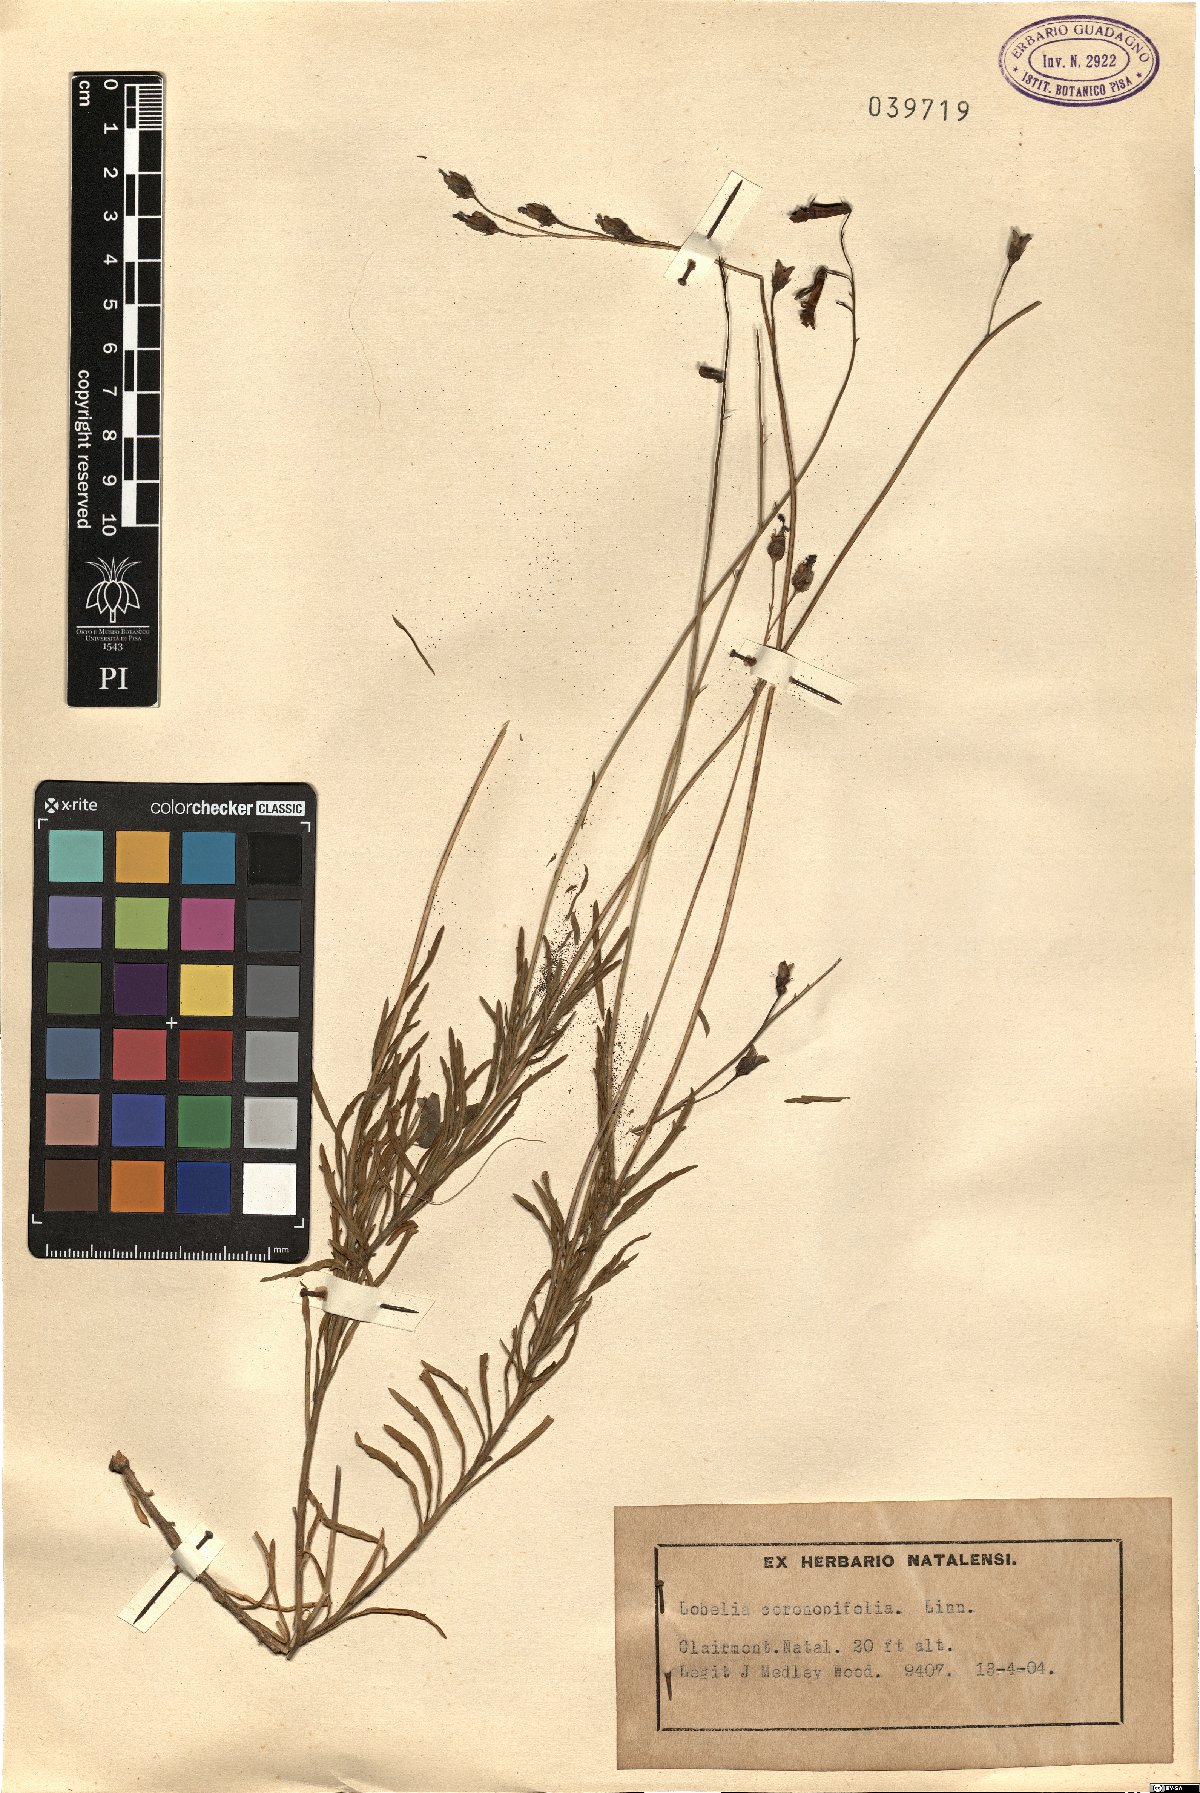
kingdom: Plantae
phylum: Tracheophyta
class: Magnoliopsida
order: Asterales
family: Campanulaceae
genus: Lobelia
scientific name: Lobelia coronopifolia
